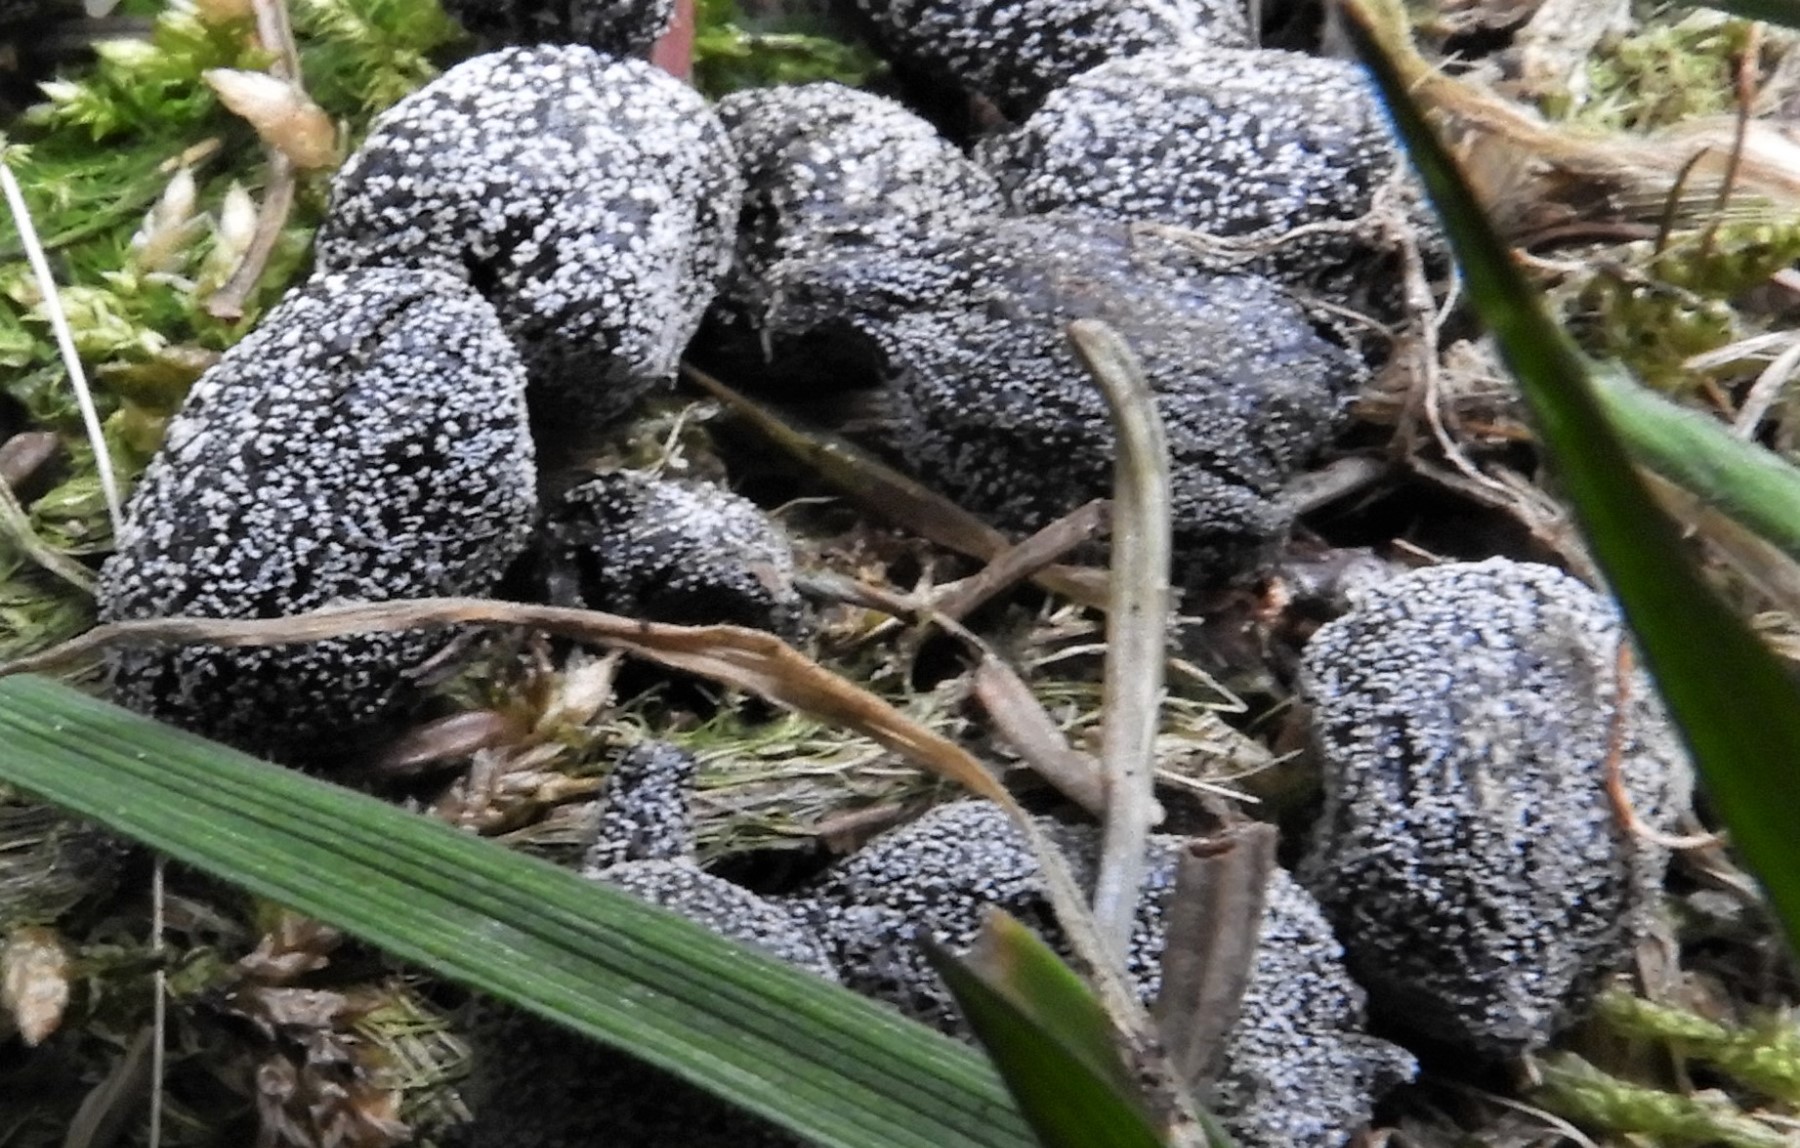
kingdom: Fungi
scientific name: Fungi
